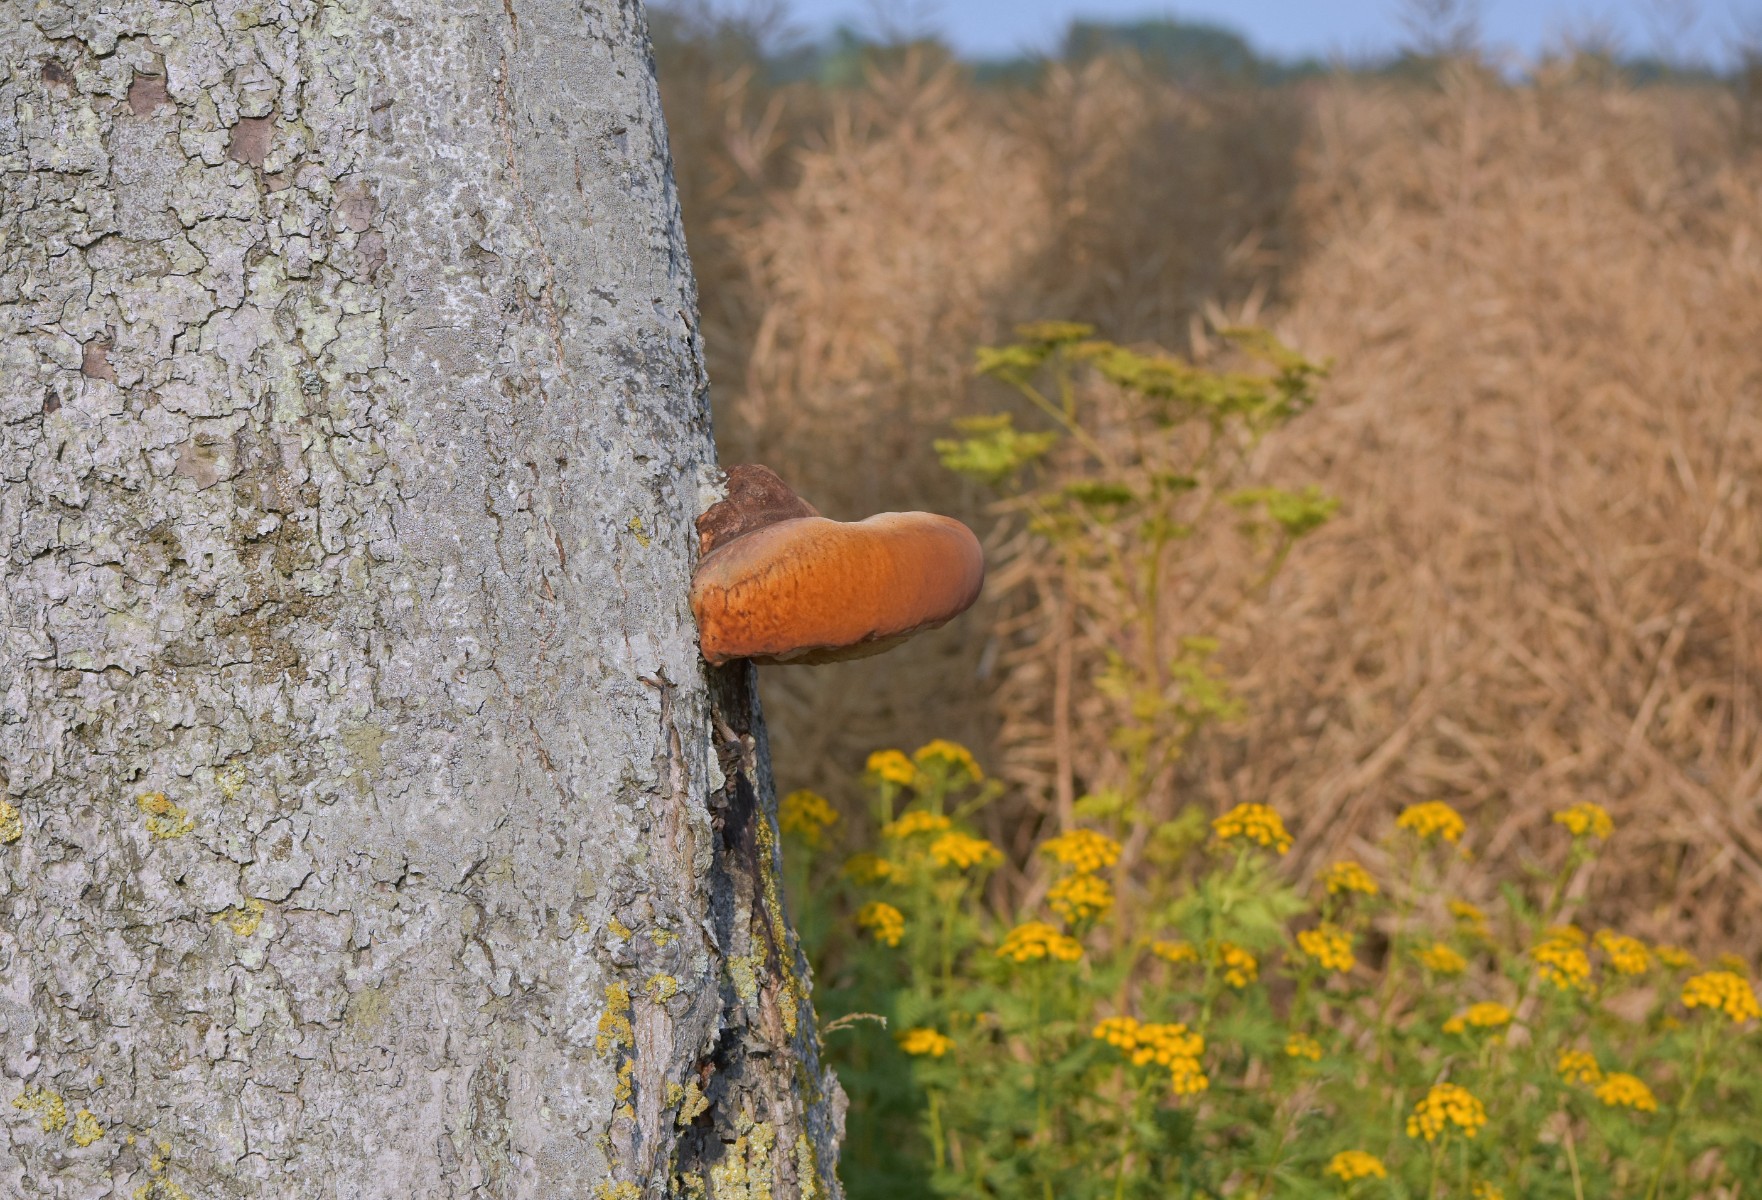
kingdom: Fungi
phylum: Basidiomycota
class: Agaricomycetes
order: Hymenochaetales
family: Hymenochaetaceae
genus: Inonotus
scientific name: Inonotus hispidus
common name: børstehåret spejlporesvamp
